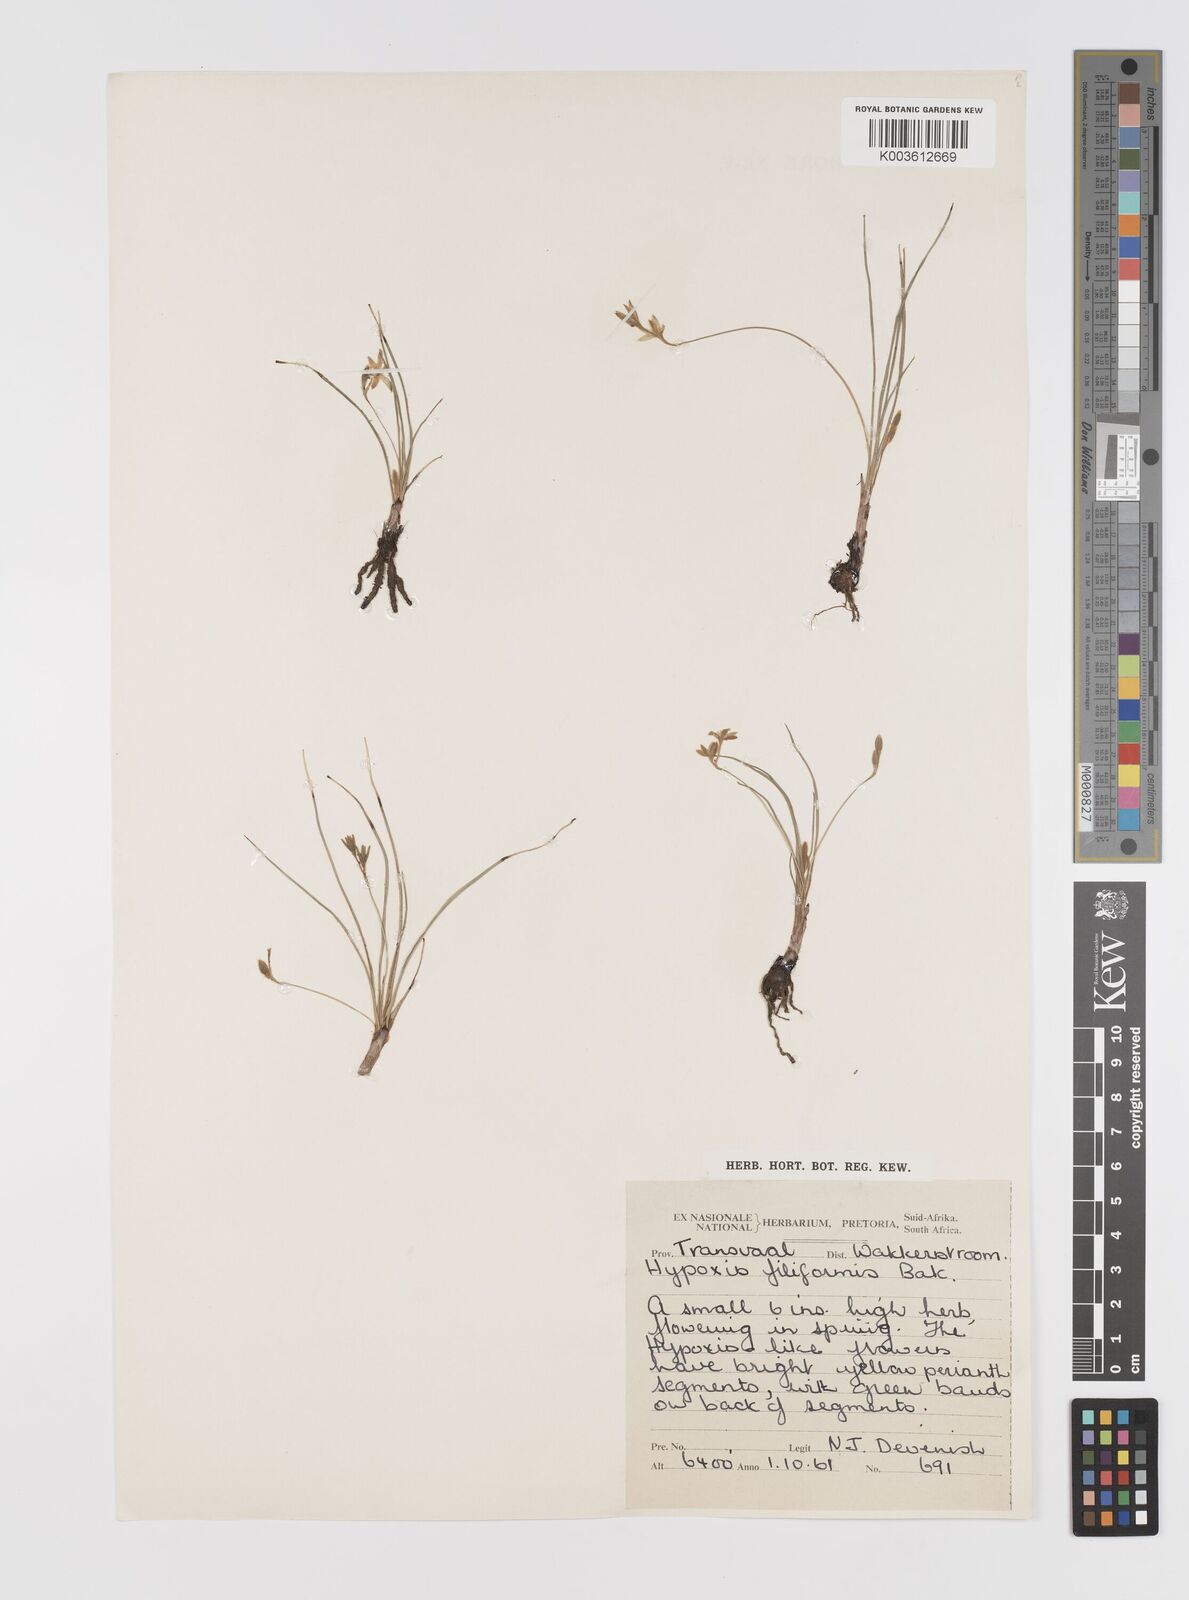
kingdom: Plantae
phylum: Tracheophyta
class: Liliopsida
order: Asparagales
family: Hypoxidaceae
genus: Hypoxis
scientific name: Hypoxis filiformis
